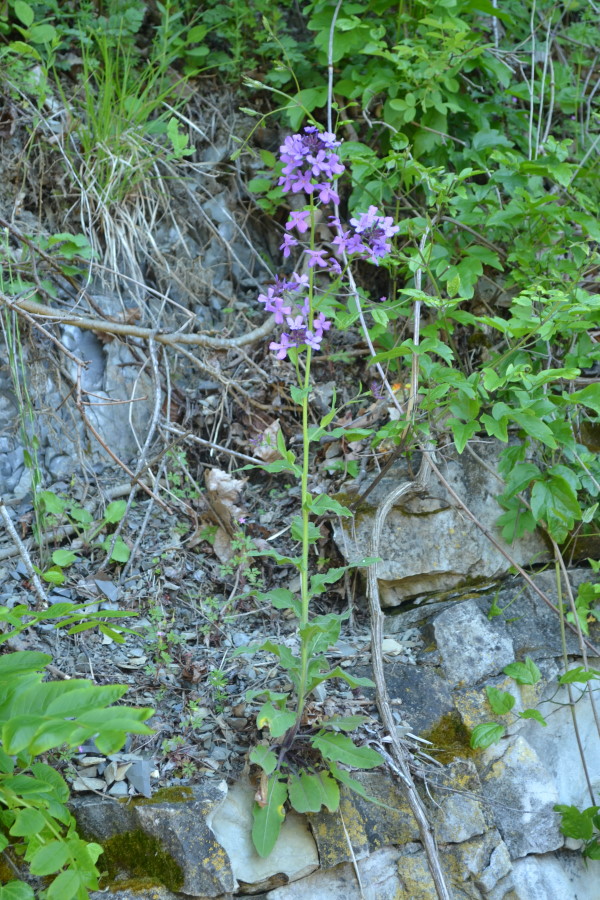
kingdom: Plantae
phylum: Tracheophyta
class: Magnoliopsida
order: Brassicales
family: Brassicaceae
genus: Hesperis
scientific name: Hesperis steveniana
